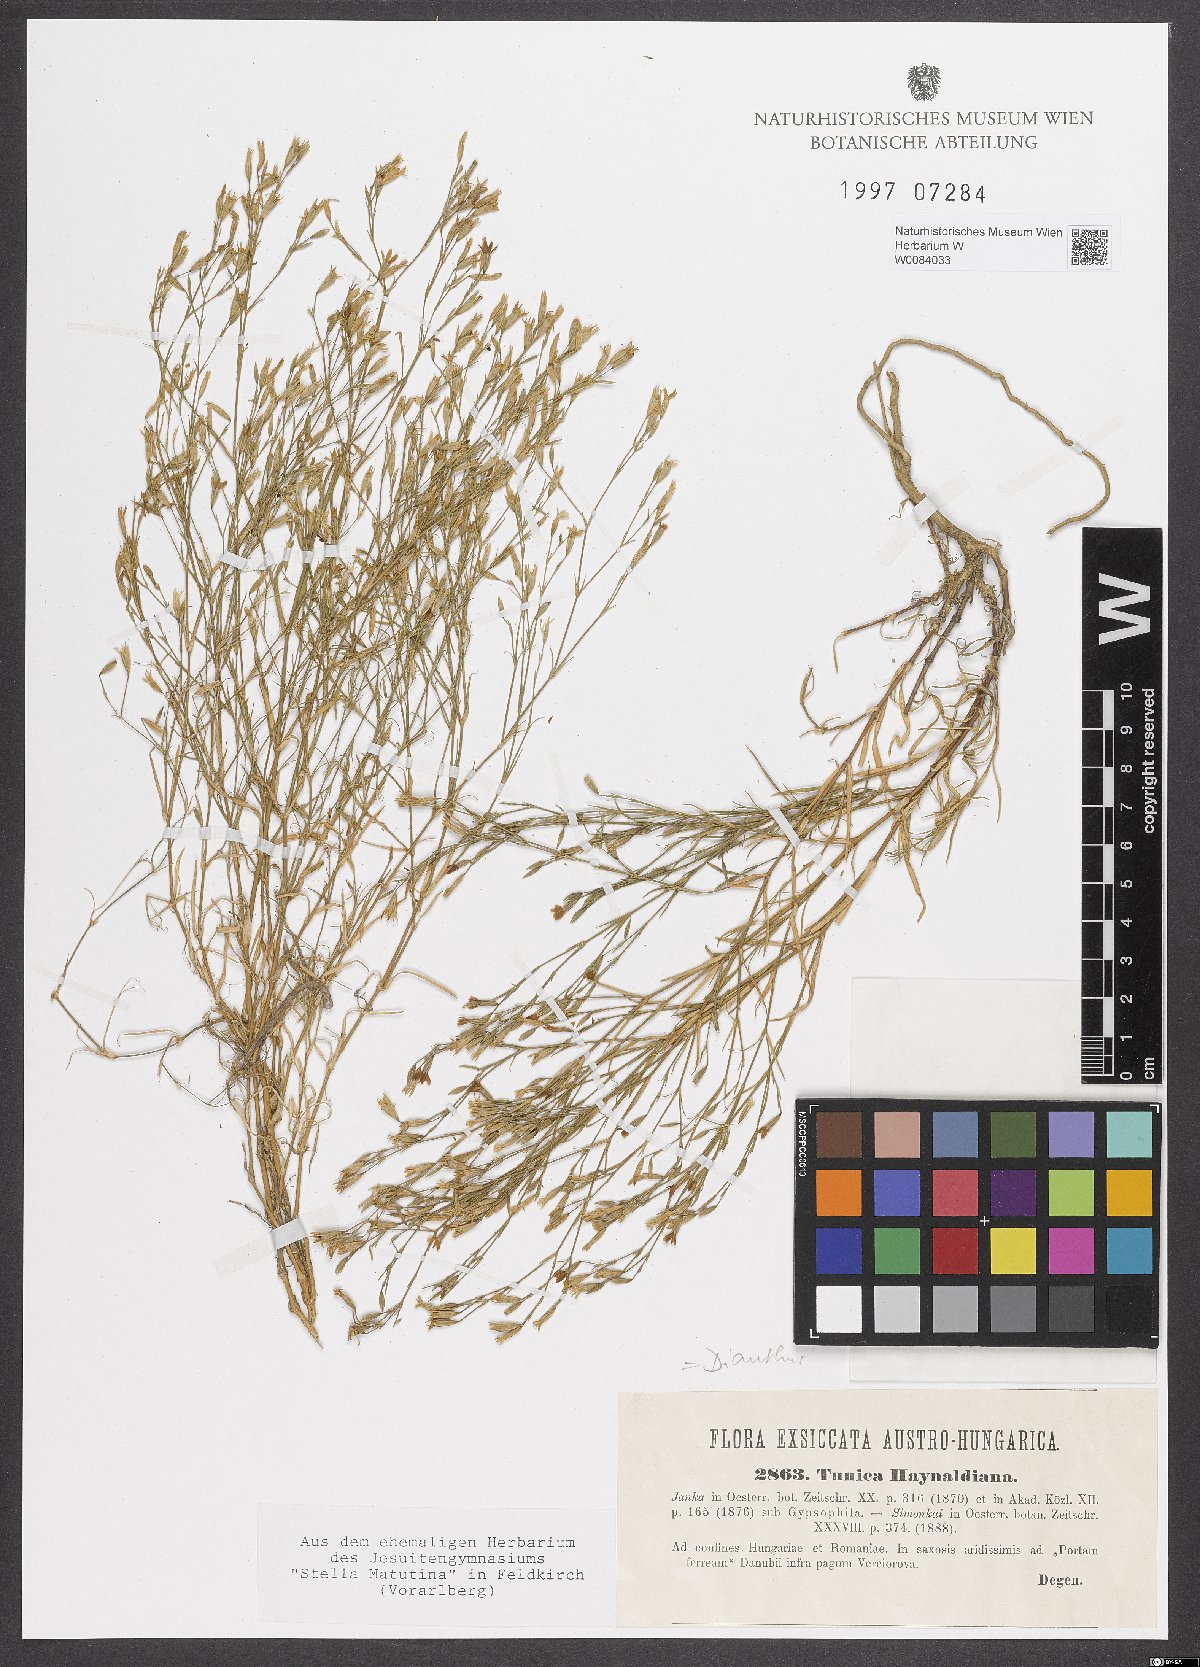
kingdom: Plantae
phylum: Tracheophyta
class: Magnoliopsida
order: Caryophyllales
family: Caryophyllaceae
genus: Dianthus
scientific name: Dianthus illyricus
